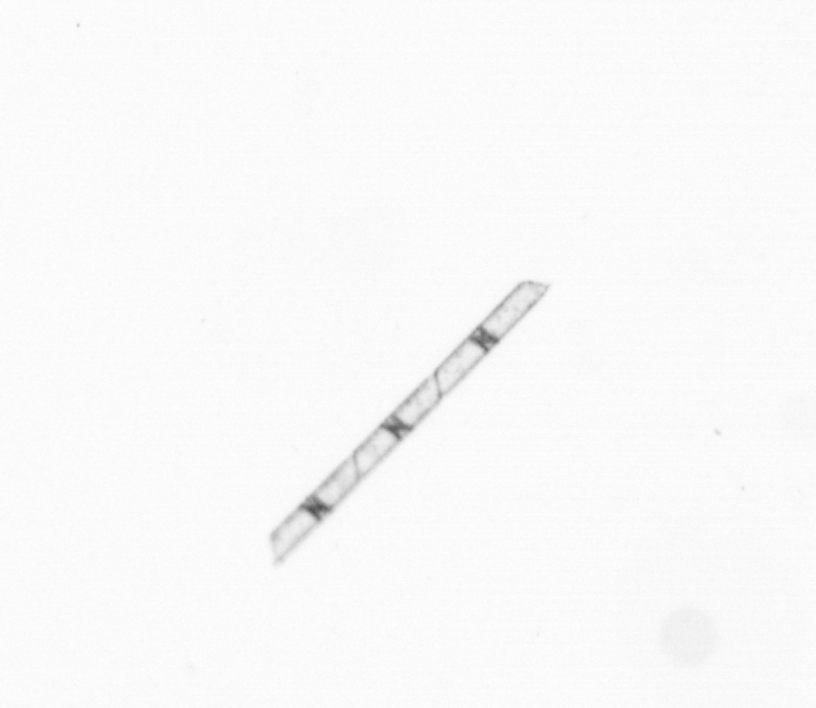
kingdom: Chromista
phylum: Ochrophyta
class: Bacillariophyceae
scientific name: Bacillariophyceae
